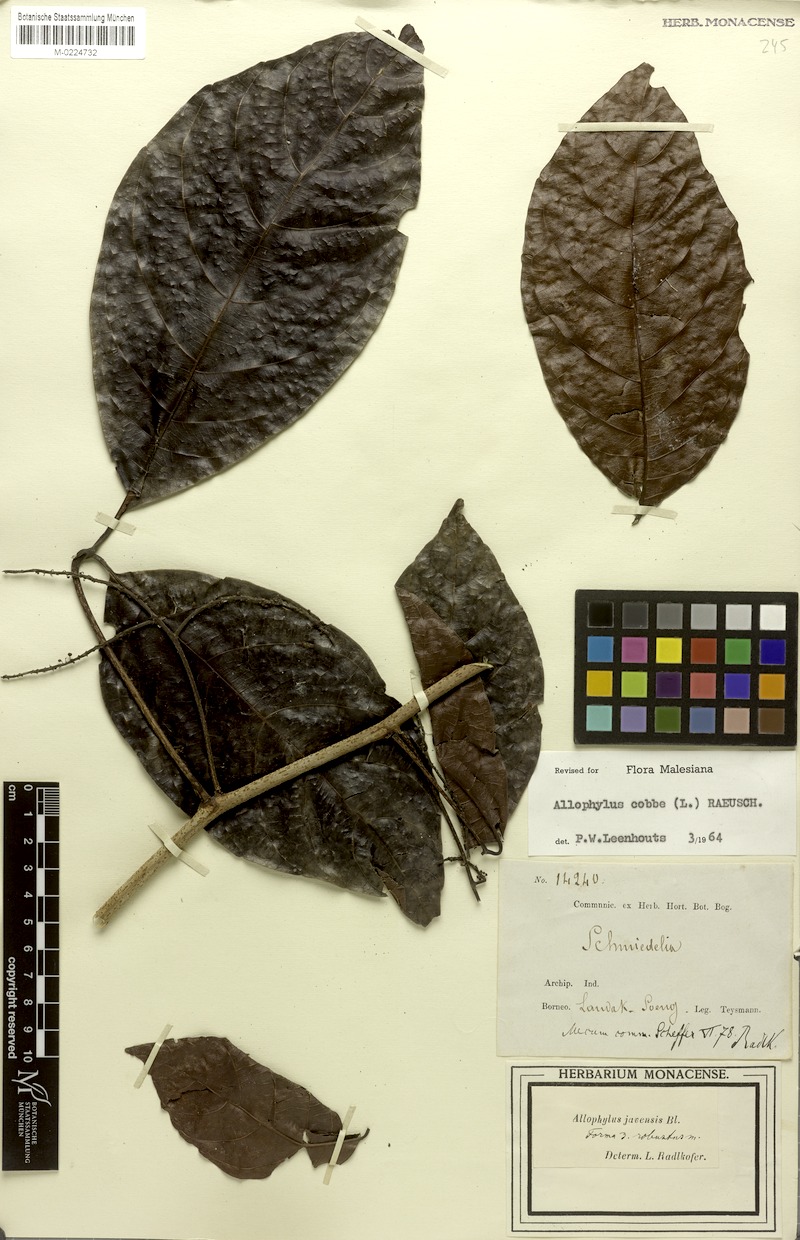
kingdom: Plantae
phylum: Tracheophyta
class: Magnoliopsida
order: Sapindales
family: Sapindaceae
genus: Allophylus
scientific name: Allophylus javensis
